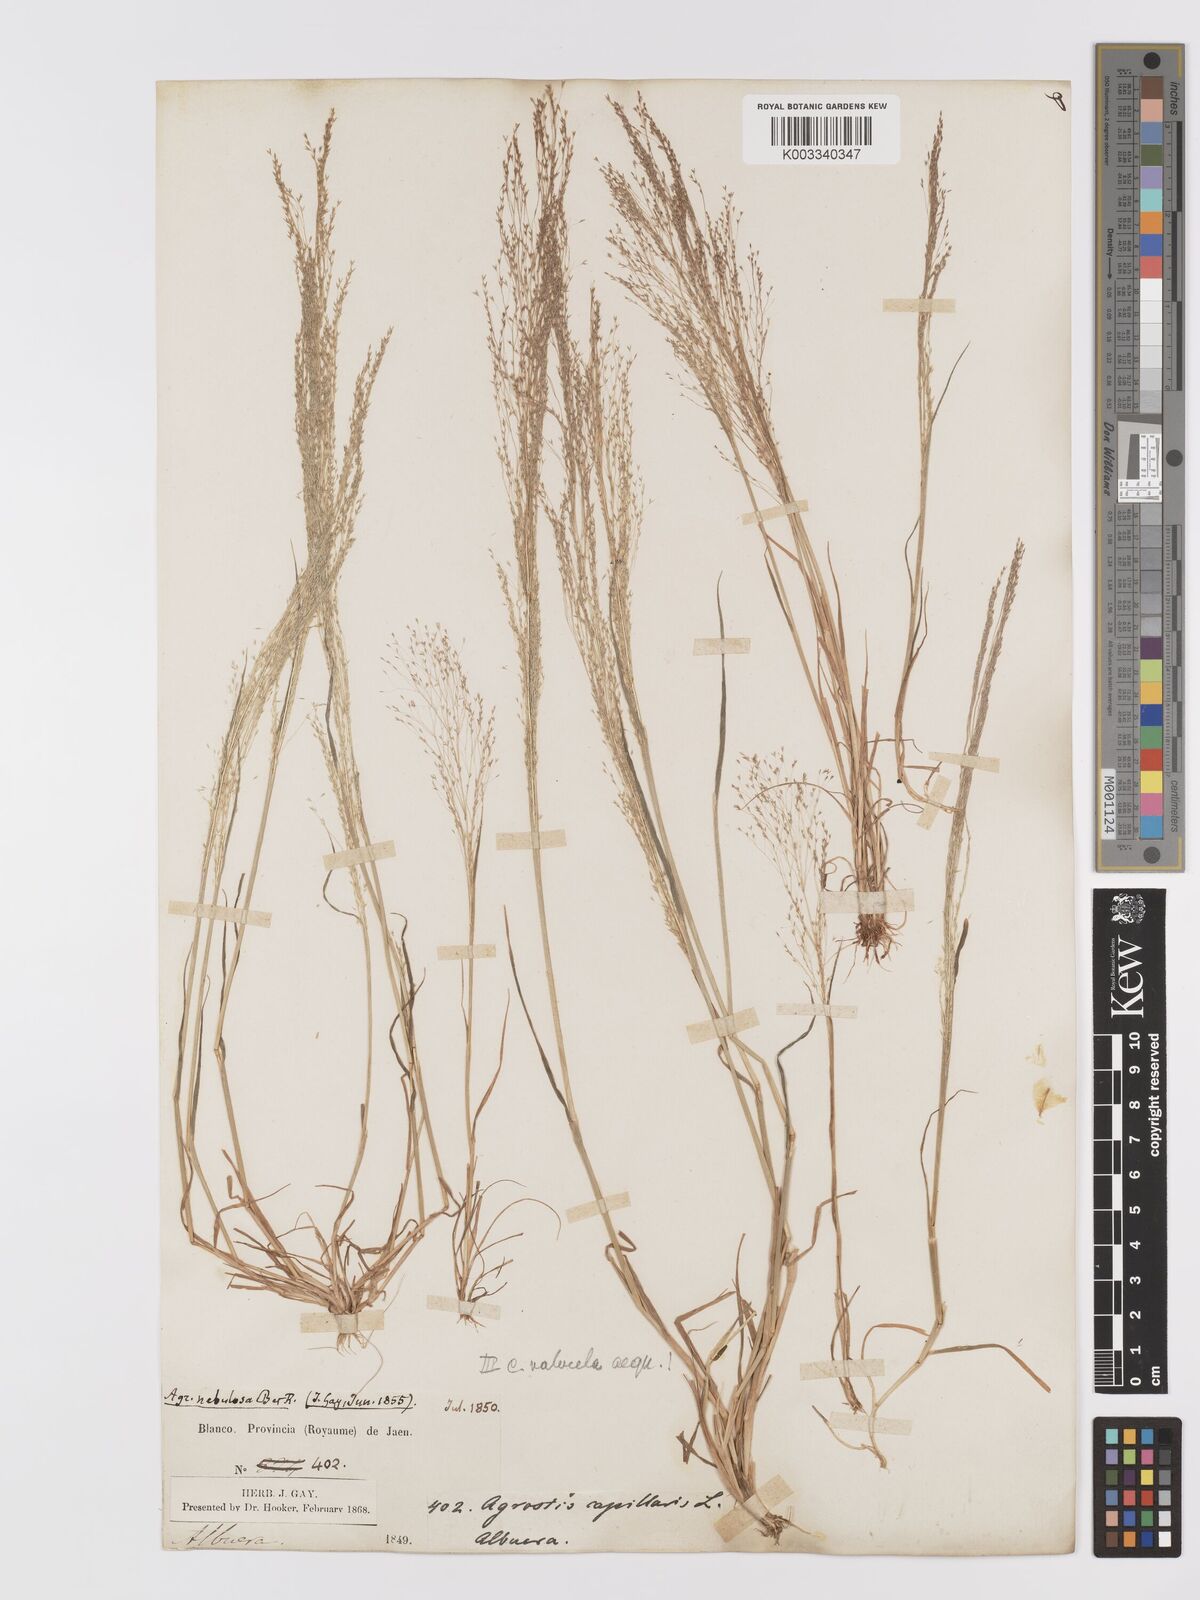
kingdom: Plantae
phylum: Tracheophyta
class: Liliopsida
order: Poales
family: Poaceae
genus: Agrostis
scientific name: Agrostis nebulosa
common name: Cloud grass
